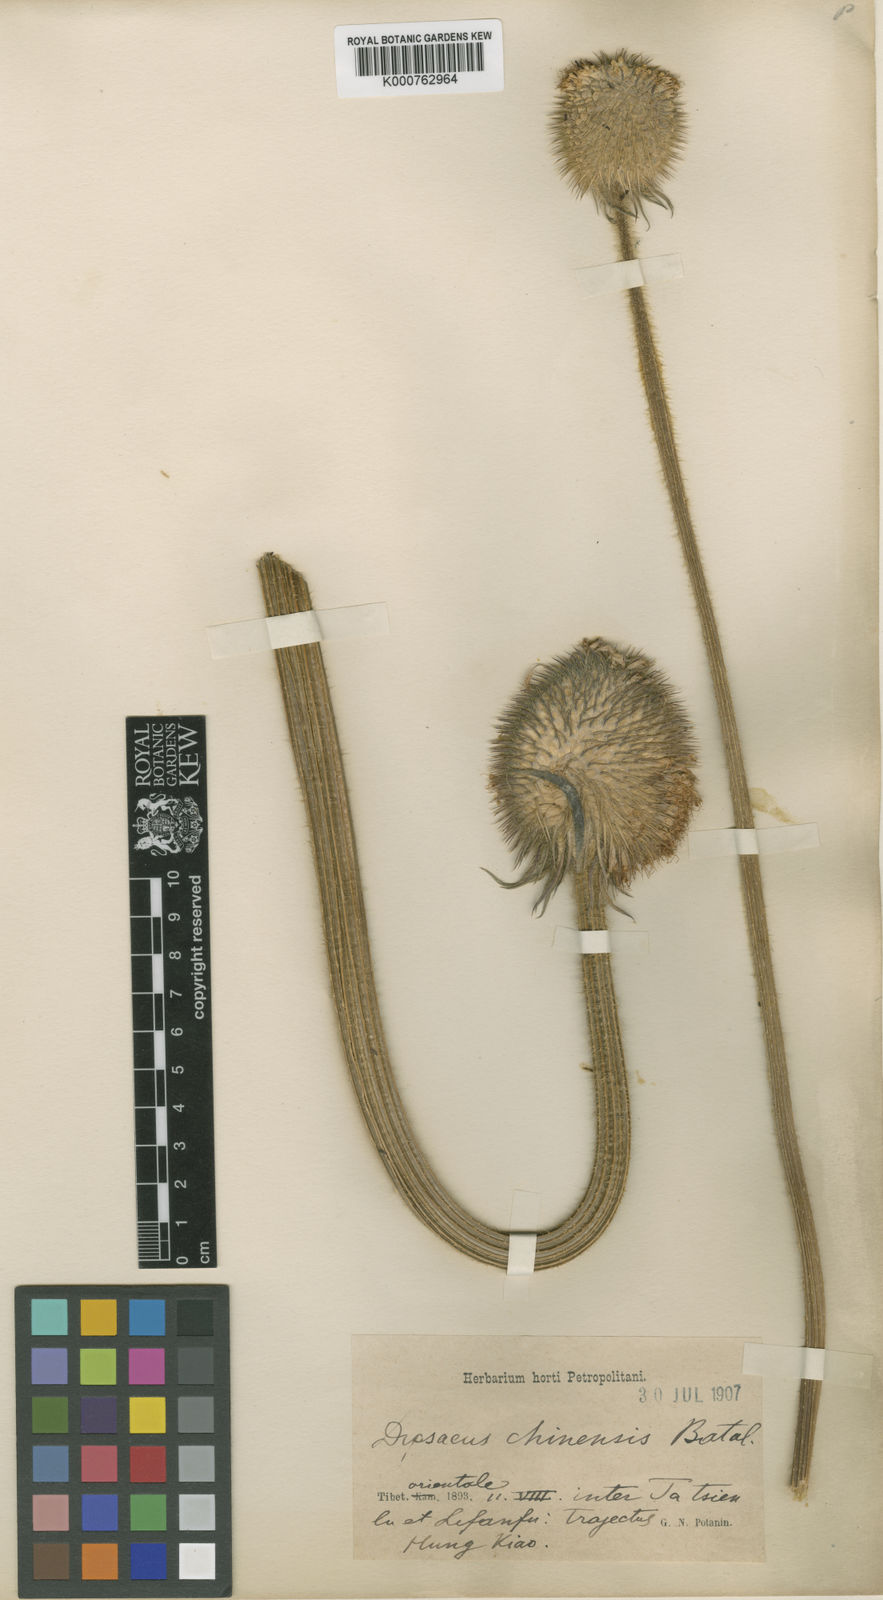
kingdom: Plantae
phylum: Tracheophyta
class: Magnoliopsida
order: Dipsacales
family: Caprifoliaceae
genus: Dipsacus
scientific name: Dipsacus inermis
